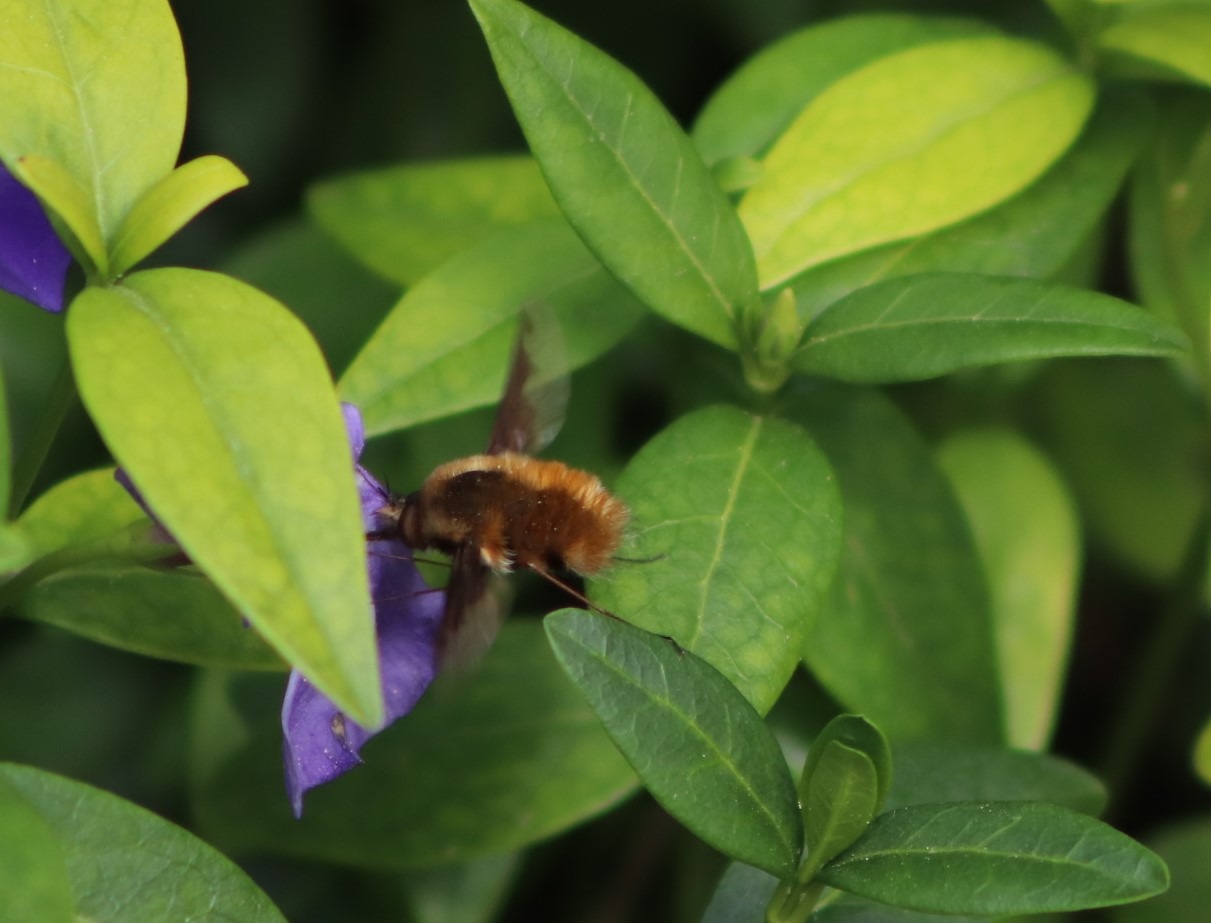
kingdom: Animalia
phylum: Arthropoda
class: Insecta
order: Diptera
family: Bombyliidae
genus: Bombylius
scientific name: Bombylius major
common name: Stor humleflue
